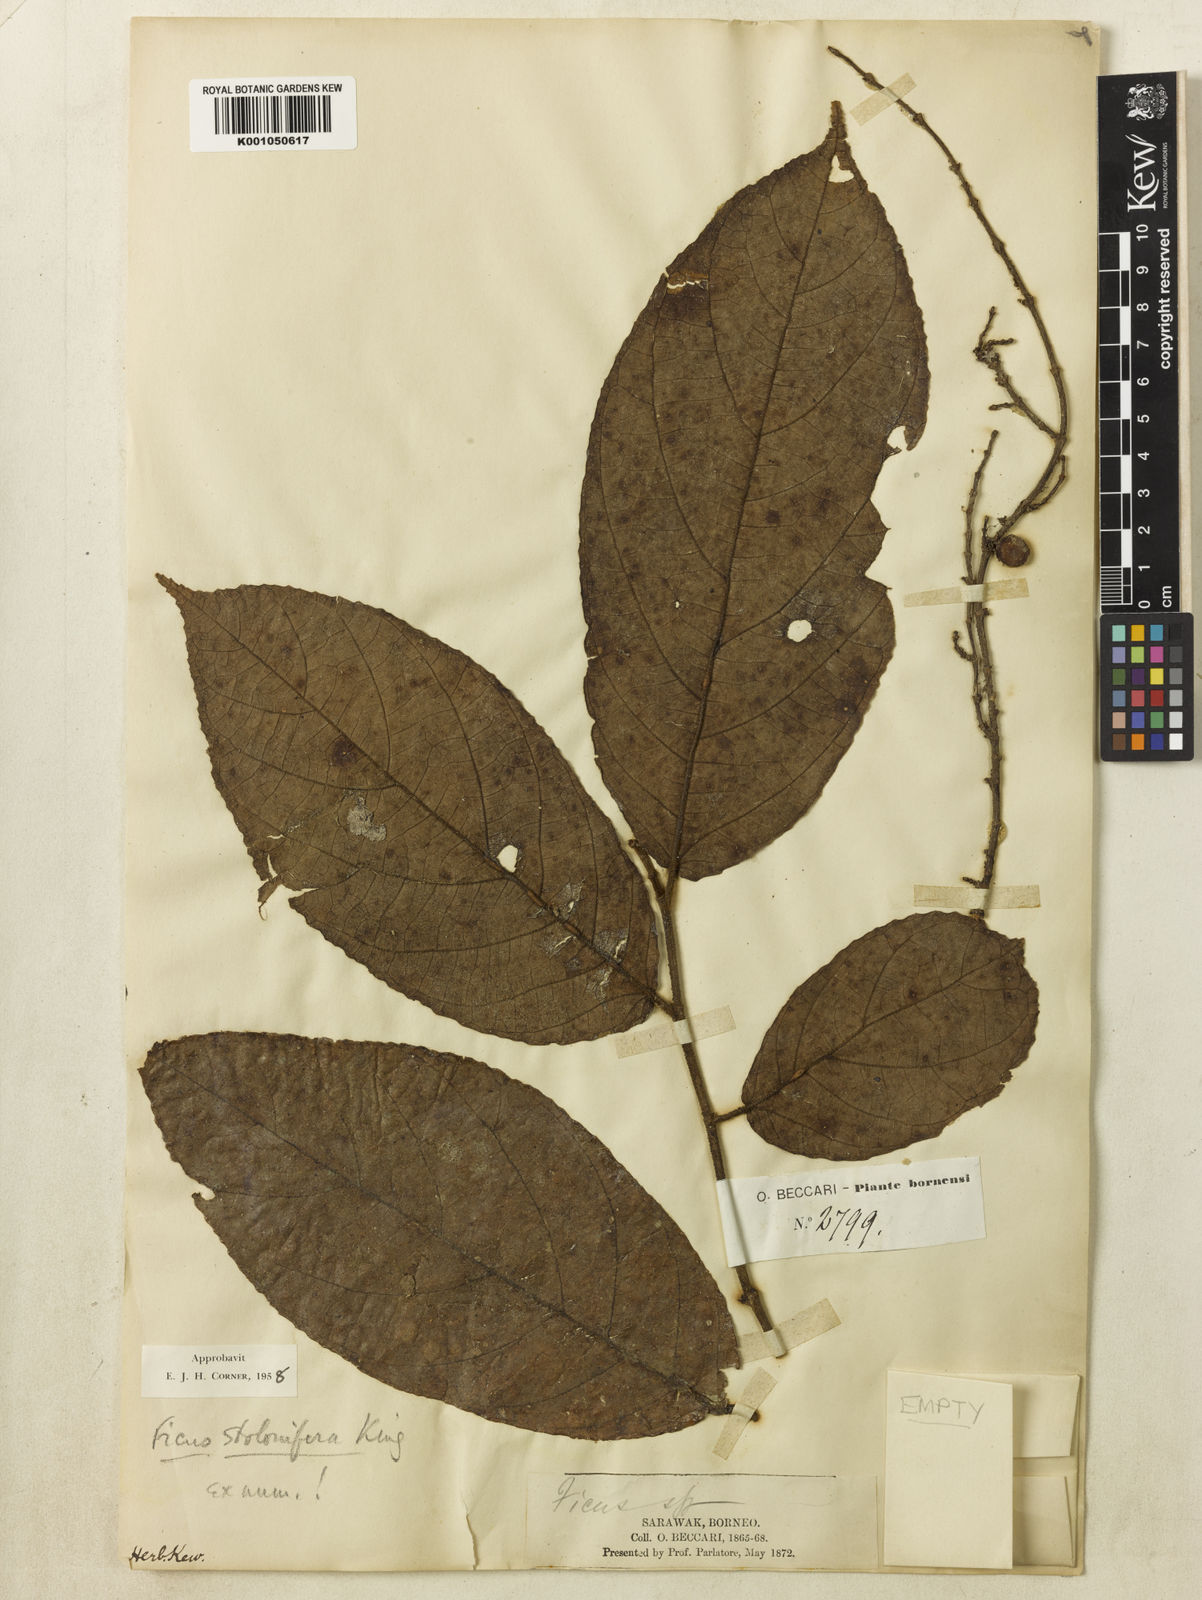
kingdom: Plantae
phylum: Tracheophyta
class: Magnoliopsida
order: Rosales
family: Moraceae
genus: Ficus
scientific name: Ficus stolonifera
